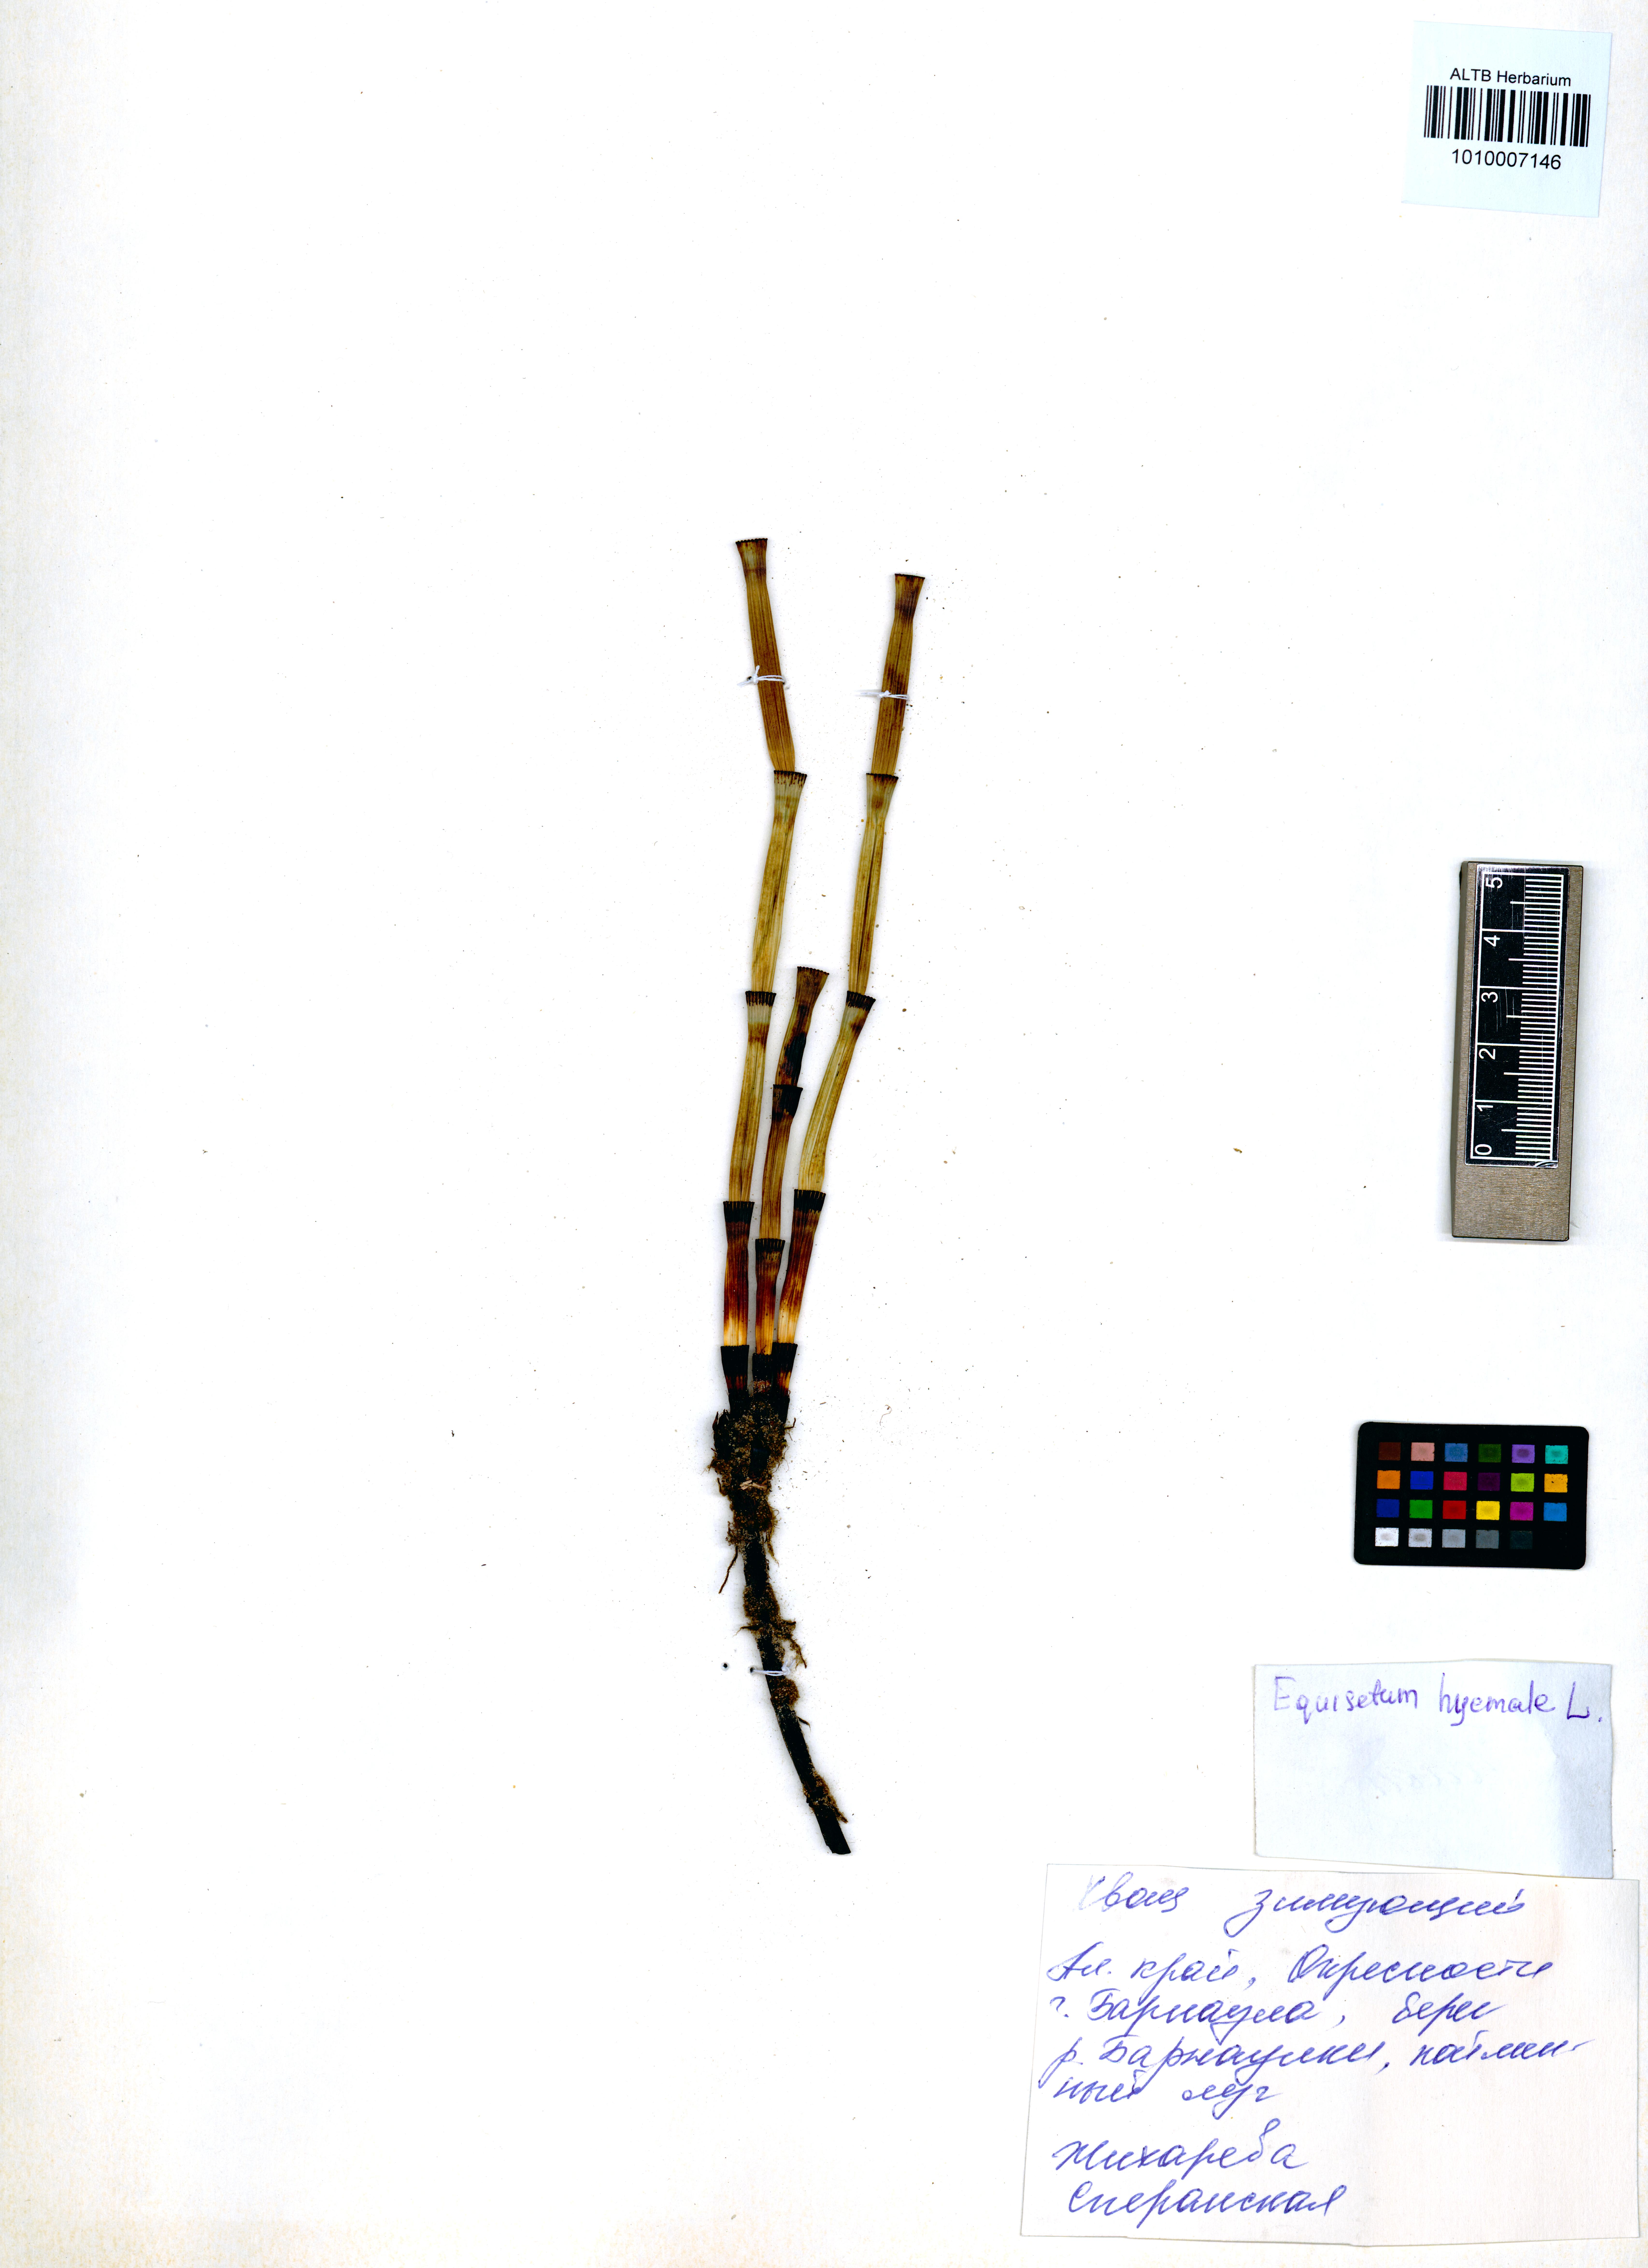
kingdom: Plantae
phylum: Tracheophyta
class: Polypodiopsida
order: Equisetales
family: Equisetaceae
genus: Equisetum
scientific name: Equisetum hyemale
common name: Rough horsetail
